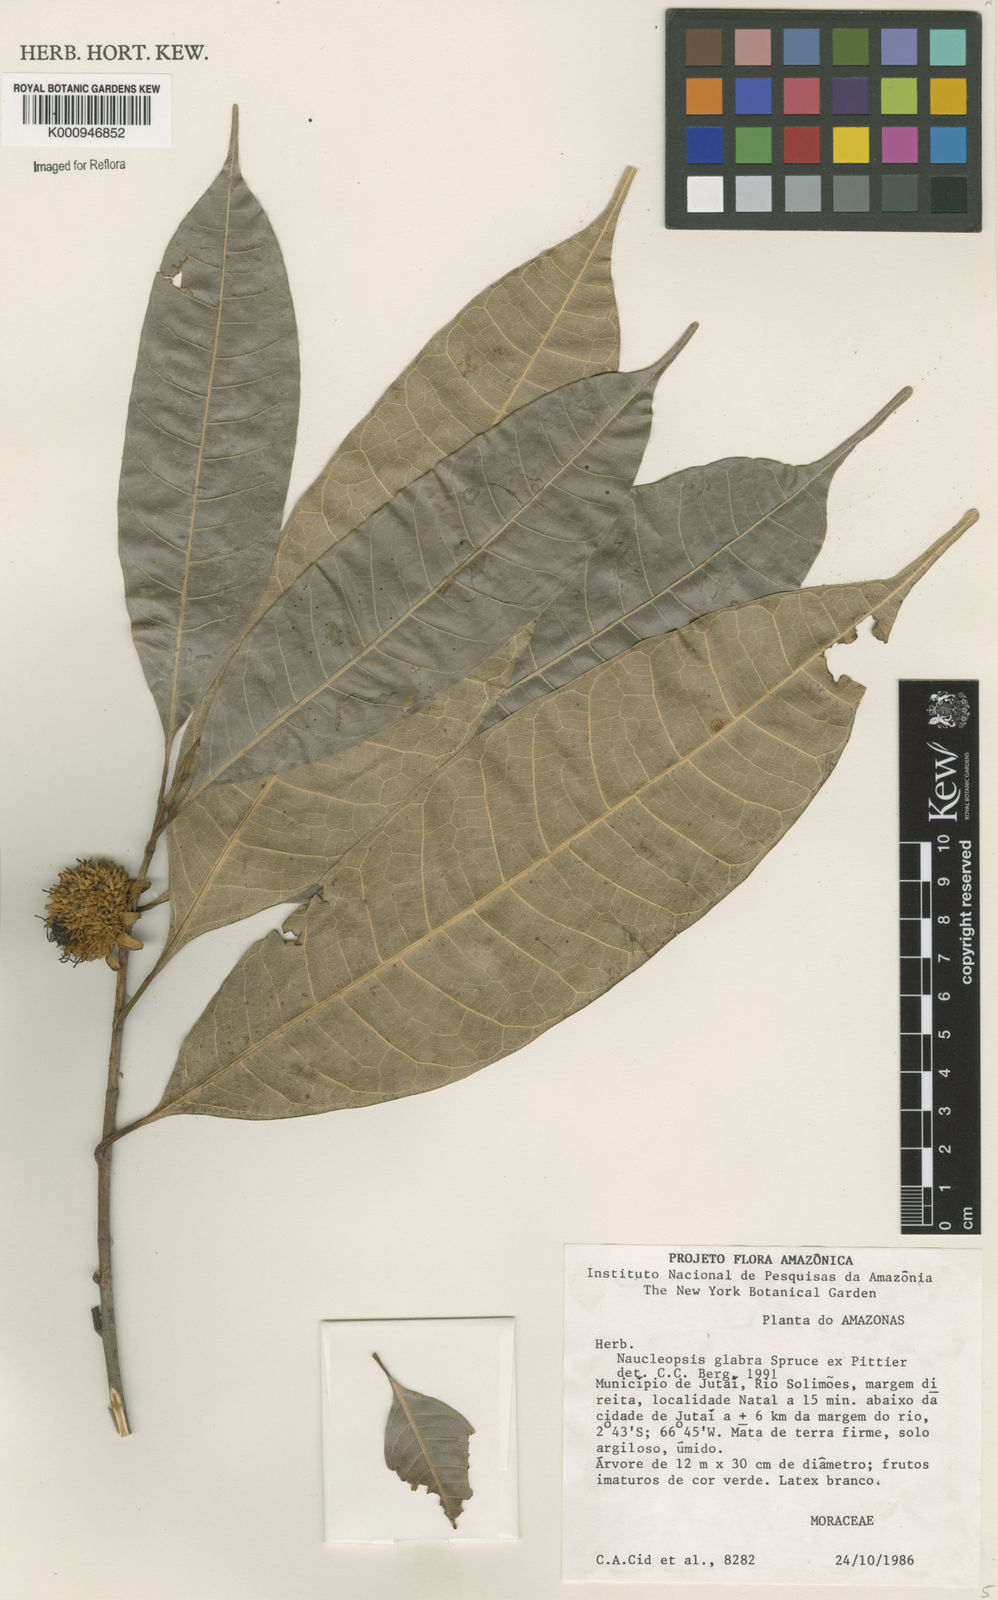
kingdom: Plantae
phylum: Tracheophyta
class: Magnoliopsida
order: Rosales
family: Moraceae
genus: Naucleopsis
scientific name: Naucleopsis glabra
